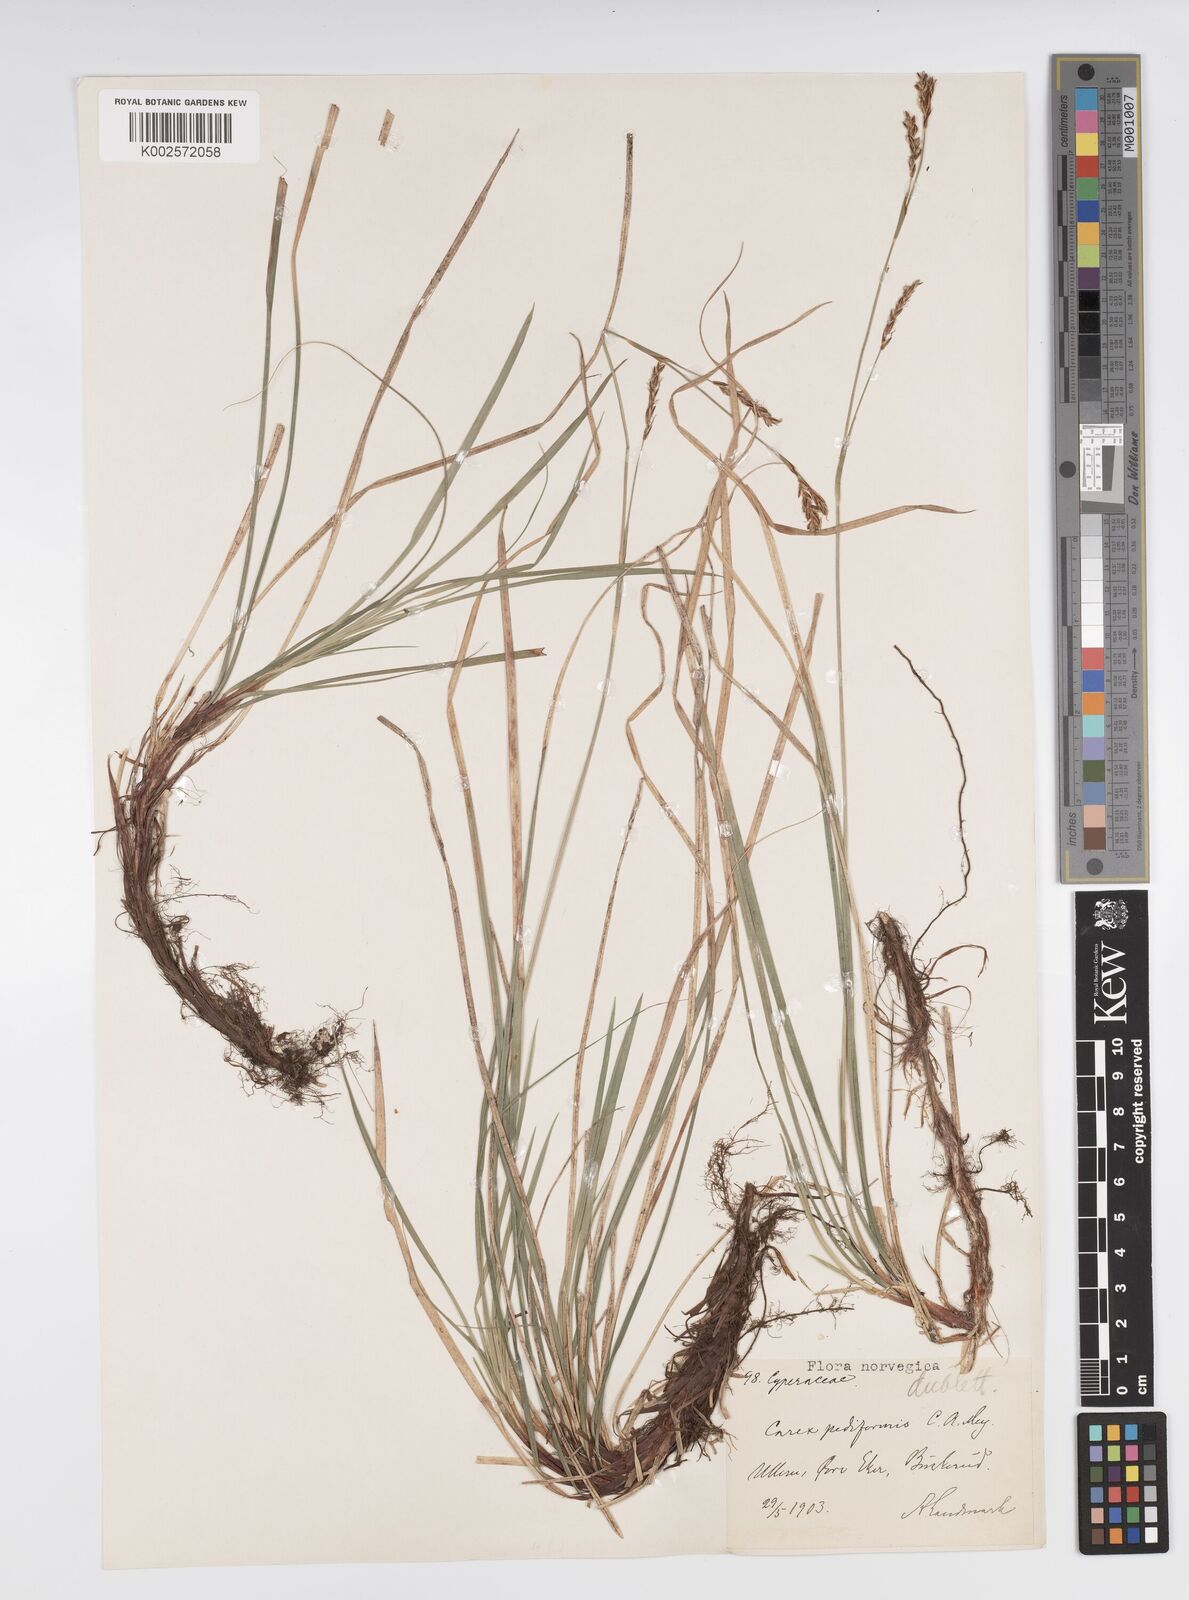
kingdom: Plantae
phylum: Tracheophyta
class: Liliopsida
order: Poales
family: Cyperaceae
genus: Carex
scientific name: Carex pediformis
